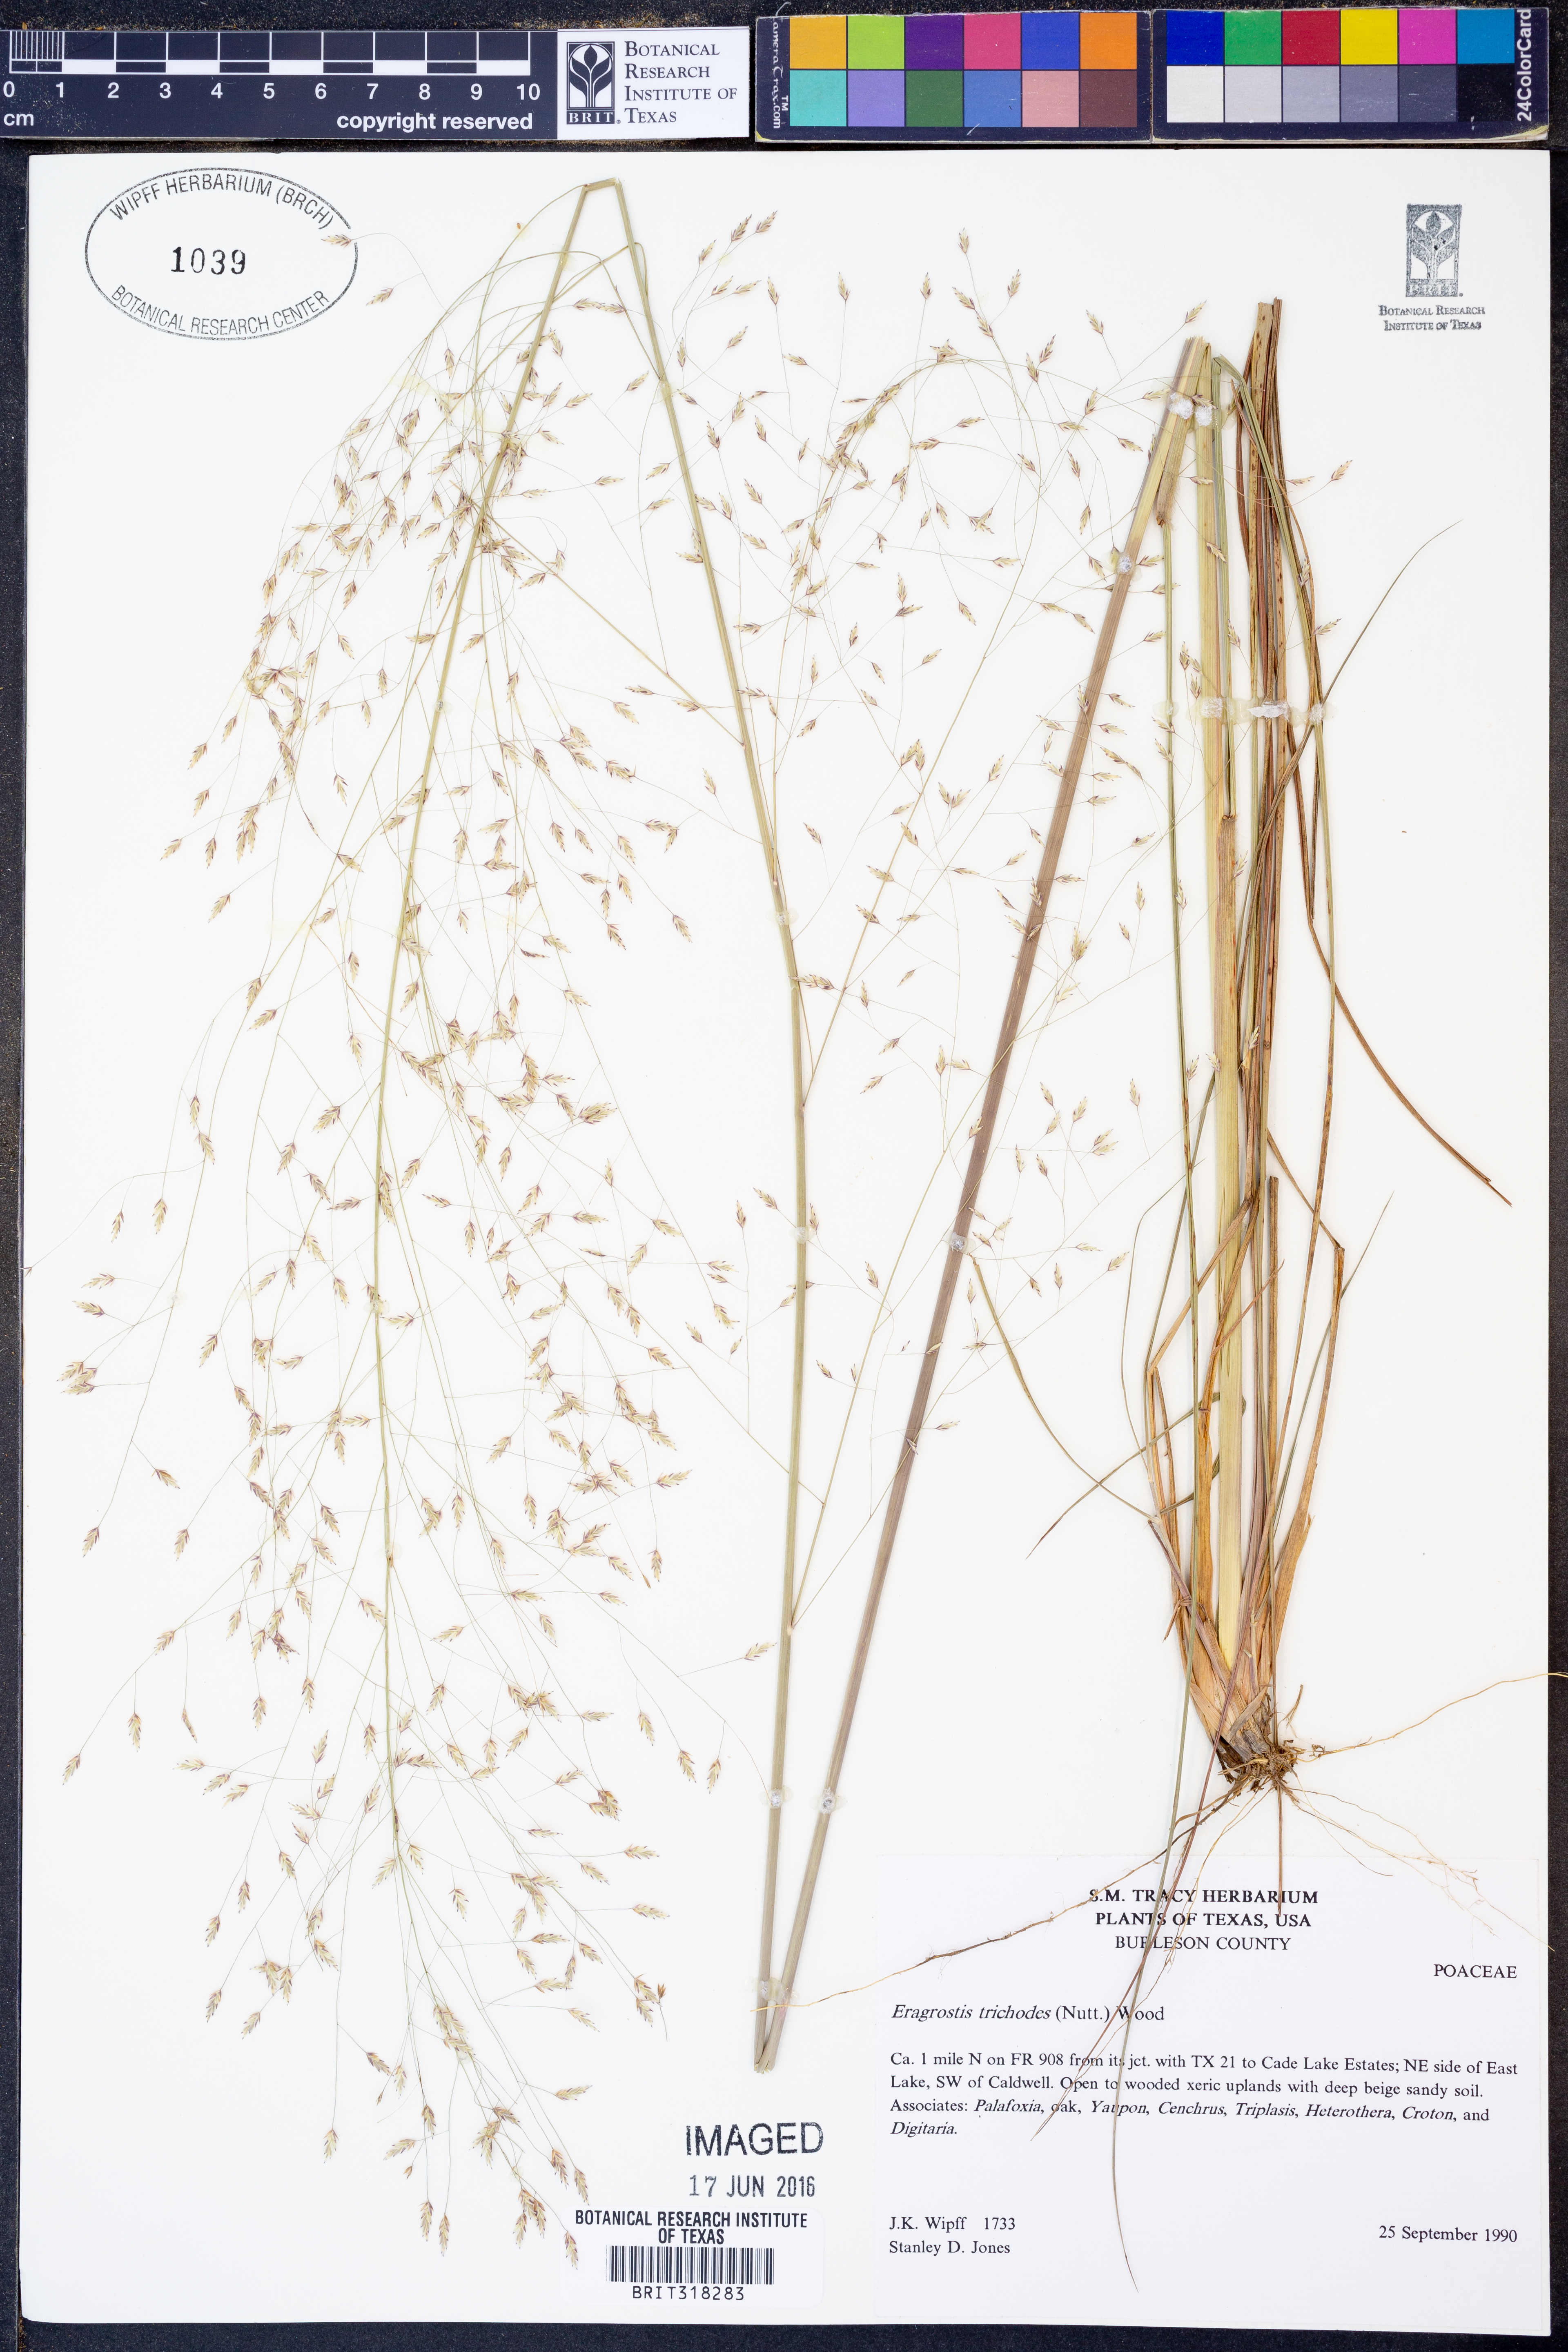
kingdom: Plantae
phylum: Tracheophyta
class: Liliopsida
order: Poales
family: Poaceae
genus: Eragrostis
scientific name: Eragrostis trichodes
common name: Sand love grass
